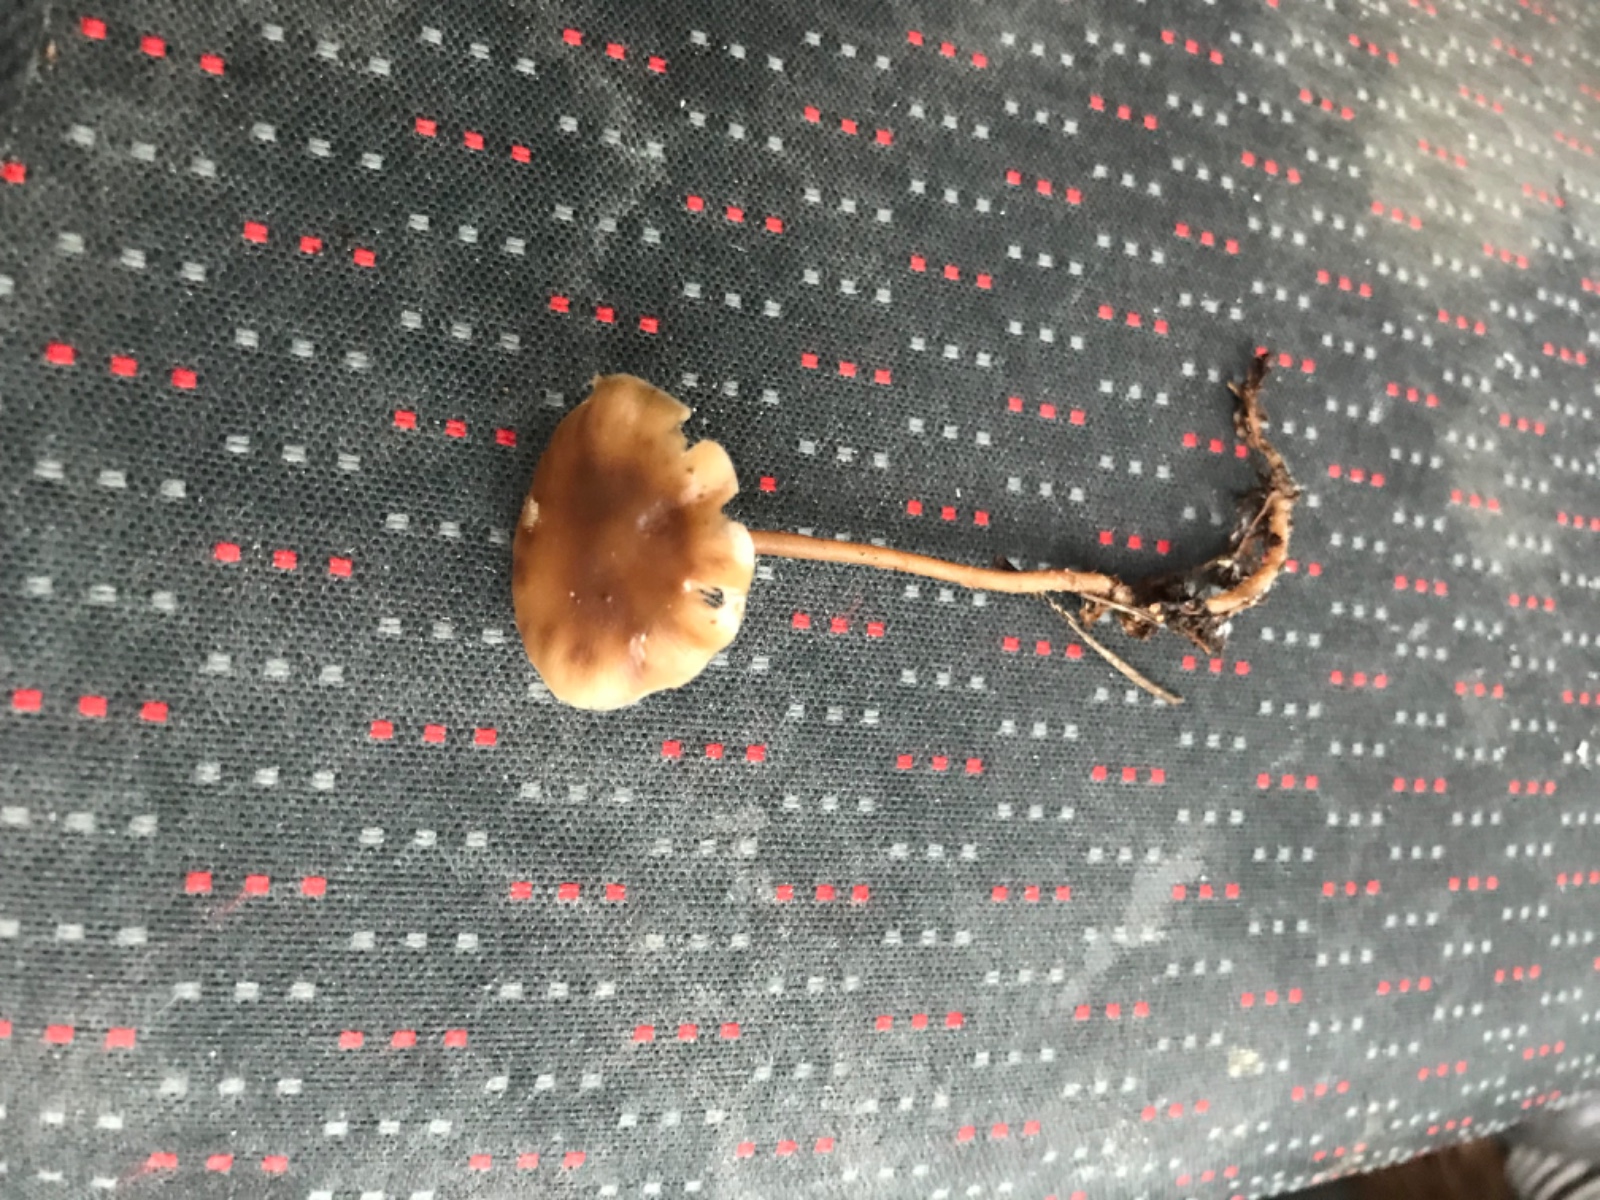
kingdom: Fungi
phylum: Basidiomycota
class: Agaricomycetes
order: Agaricales
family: Marasmiaceae
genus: Baeospora
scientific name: Baeospora myosura
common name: koglebruskhat
